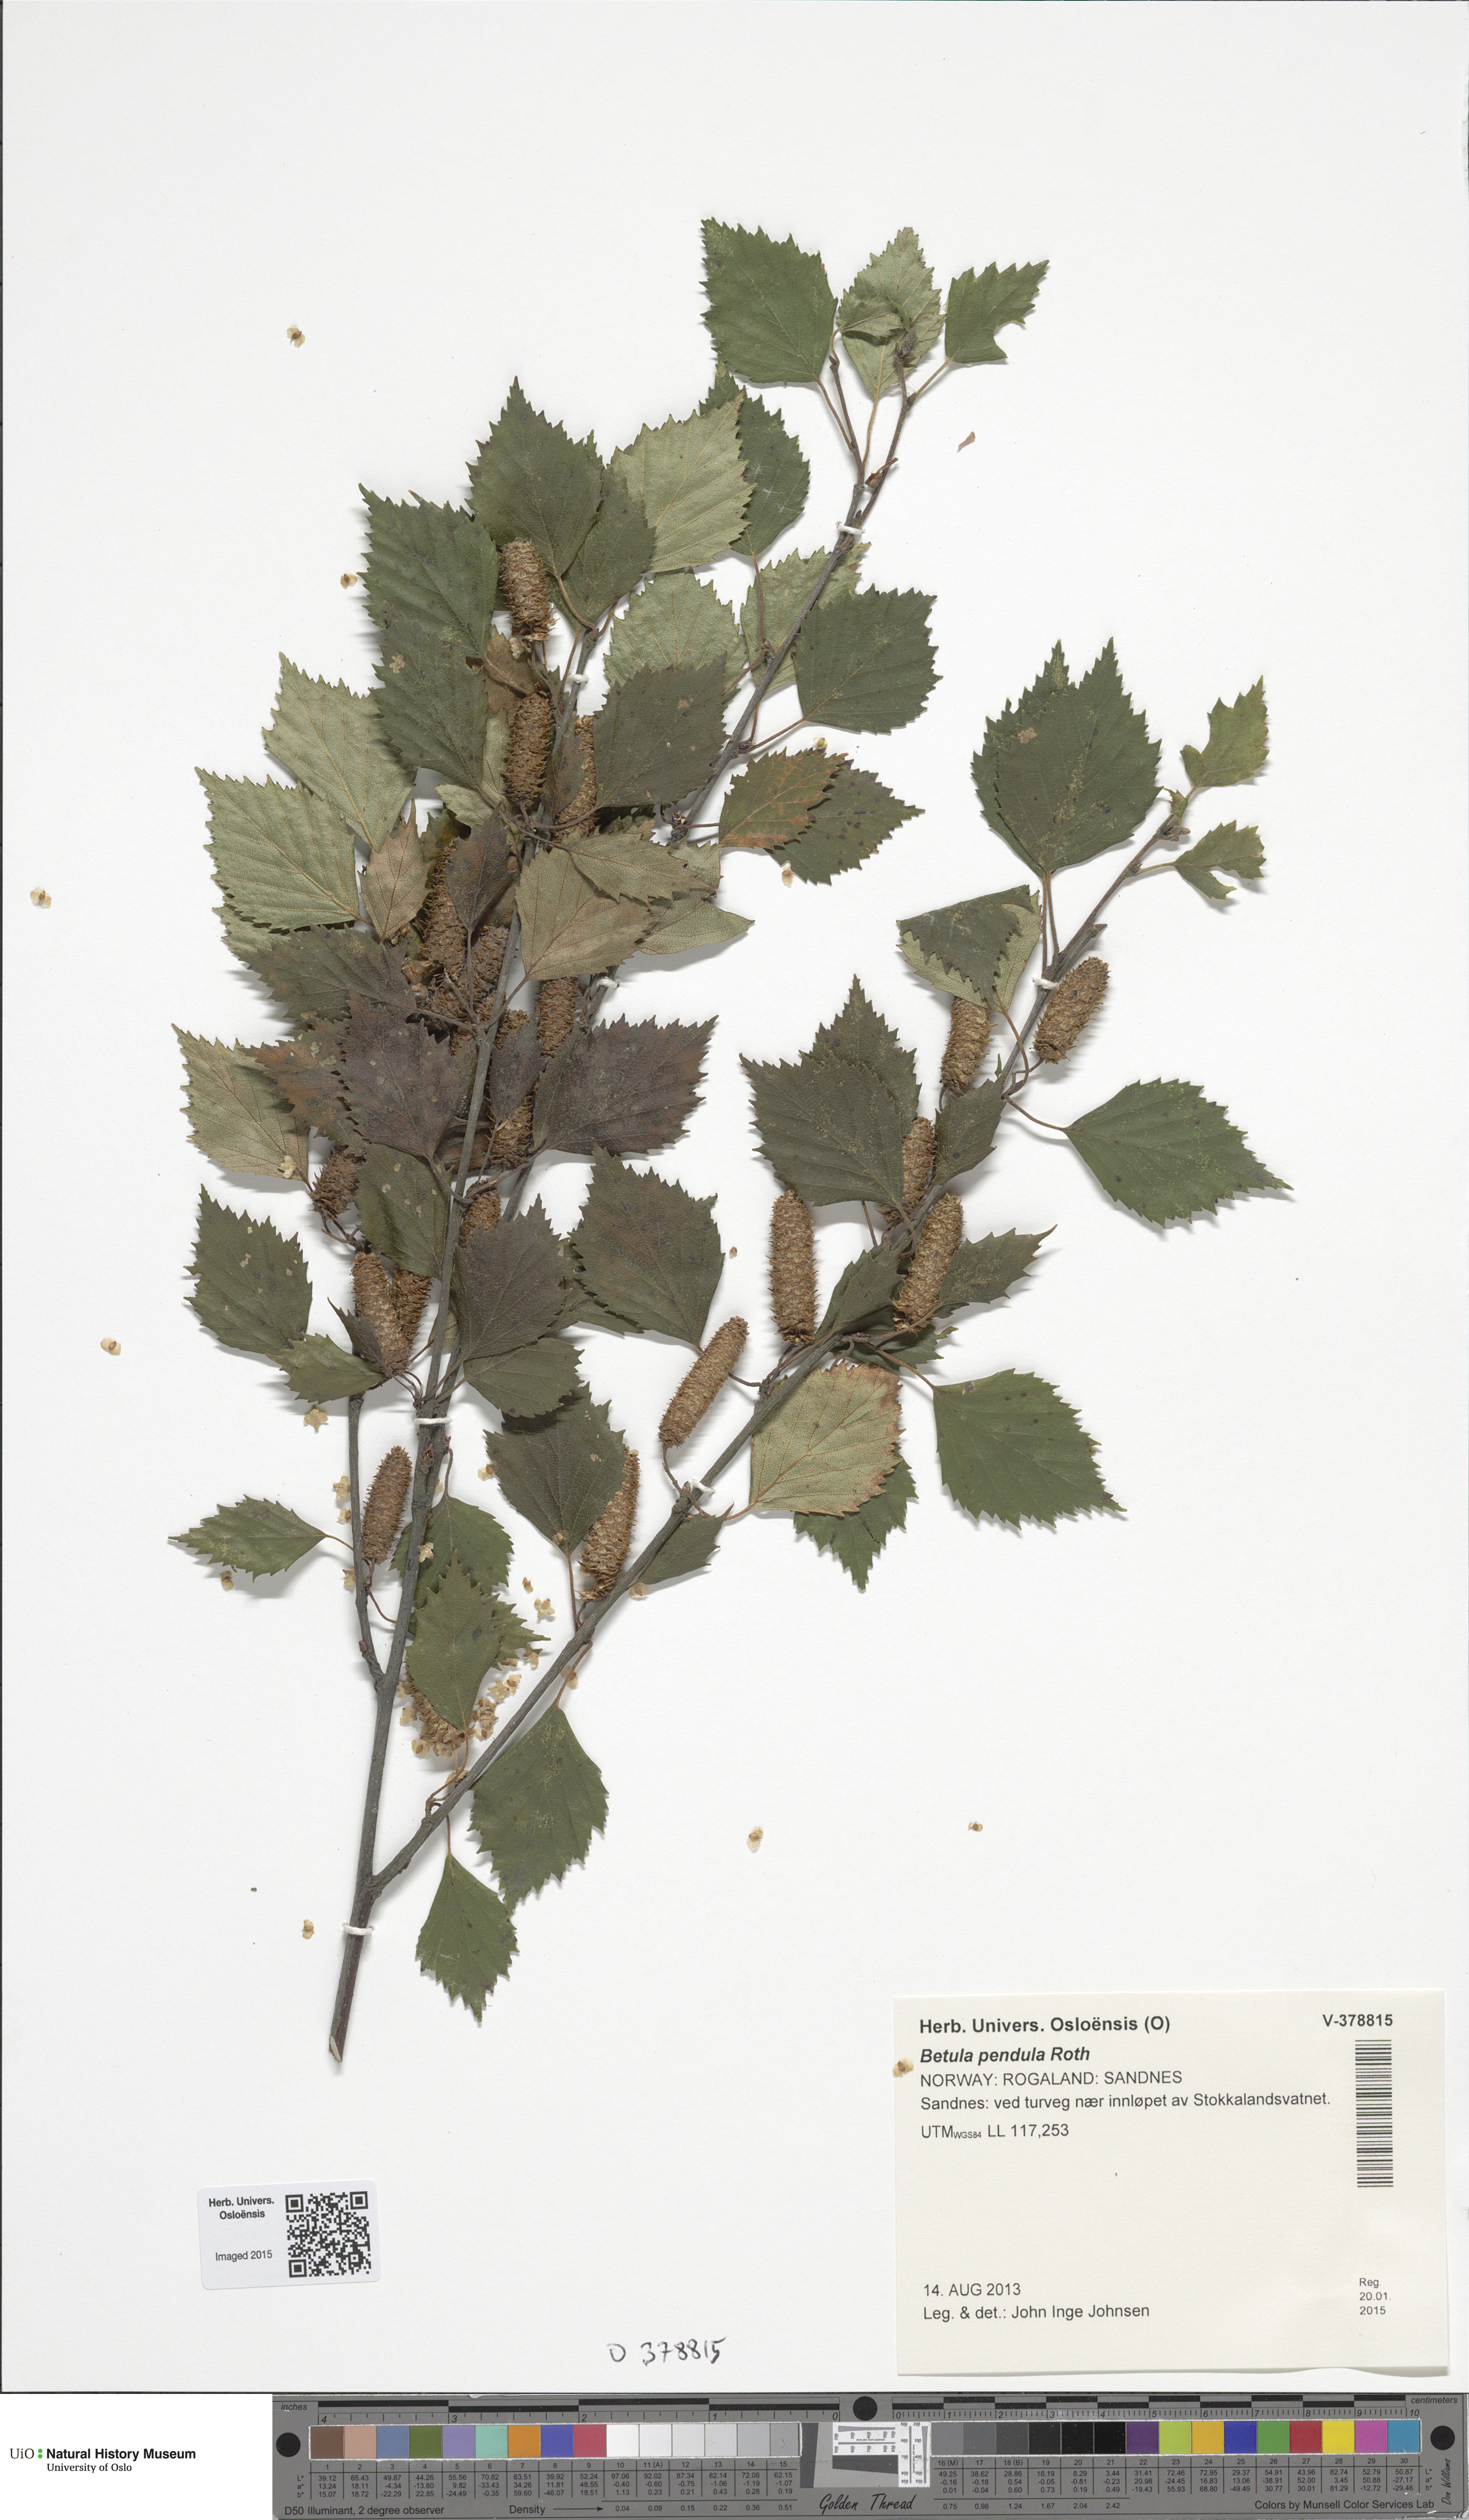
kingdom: Plantae
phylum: Tracheophyta
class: Magnoliopsida
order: Fagales
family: Betulaceae
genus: Betula
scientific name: Betula pendula
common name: Silver birch
